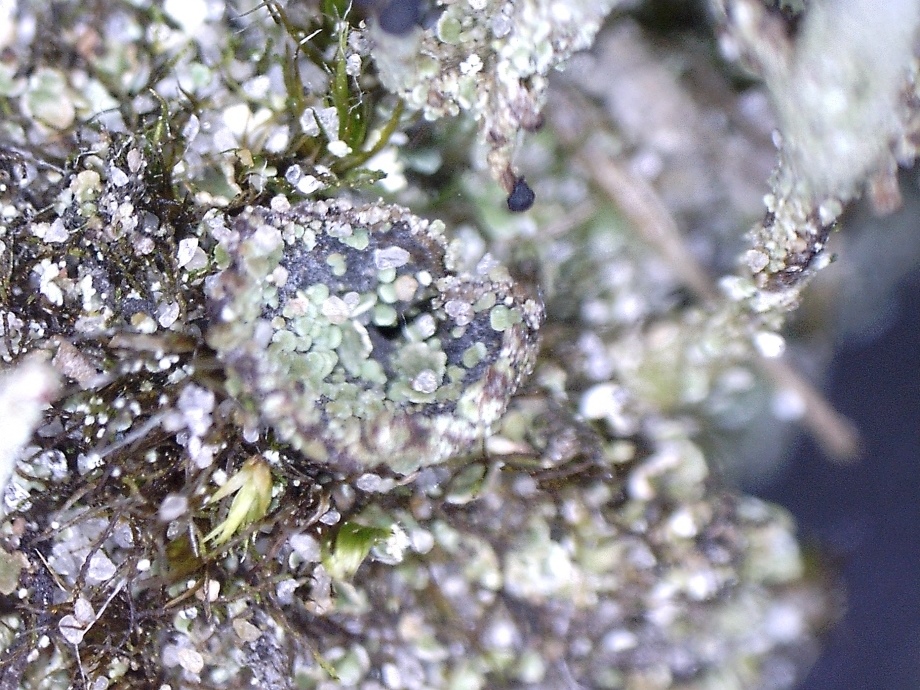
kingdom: Fungi
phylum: Ascomycota
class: Lecanoromycetes
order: Lecanorales
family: Cladoniaceae
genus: Cladonia
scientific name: Cladonia pyxidata
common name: tragt-bægerlav
